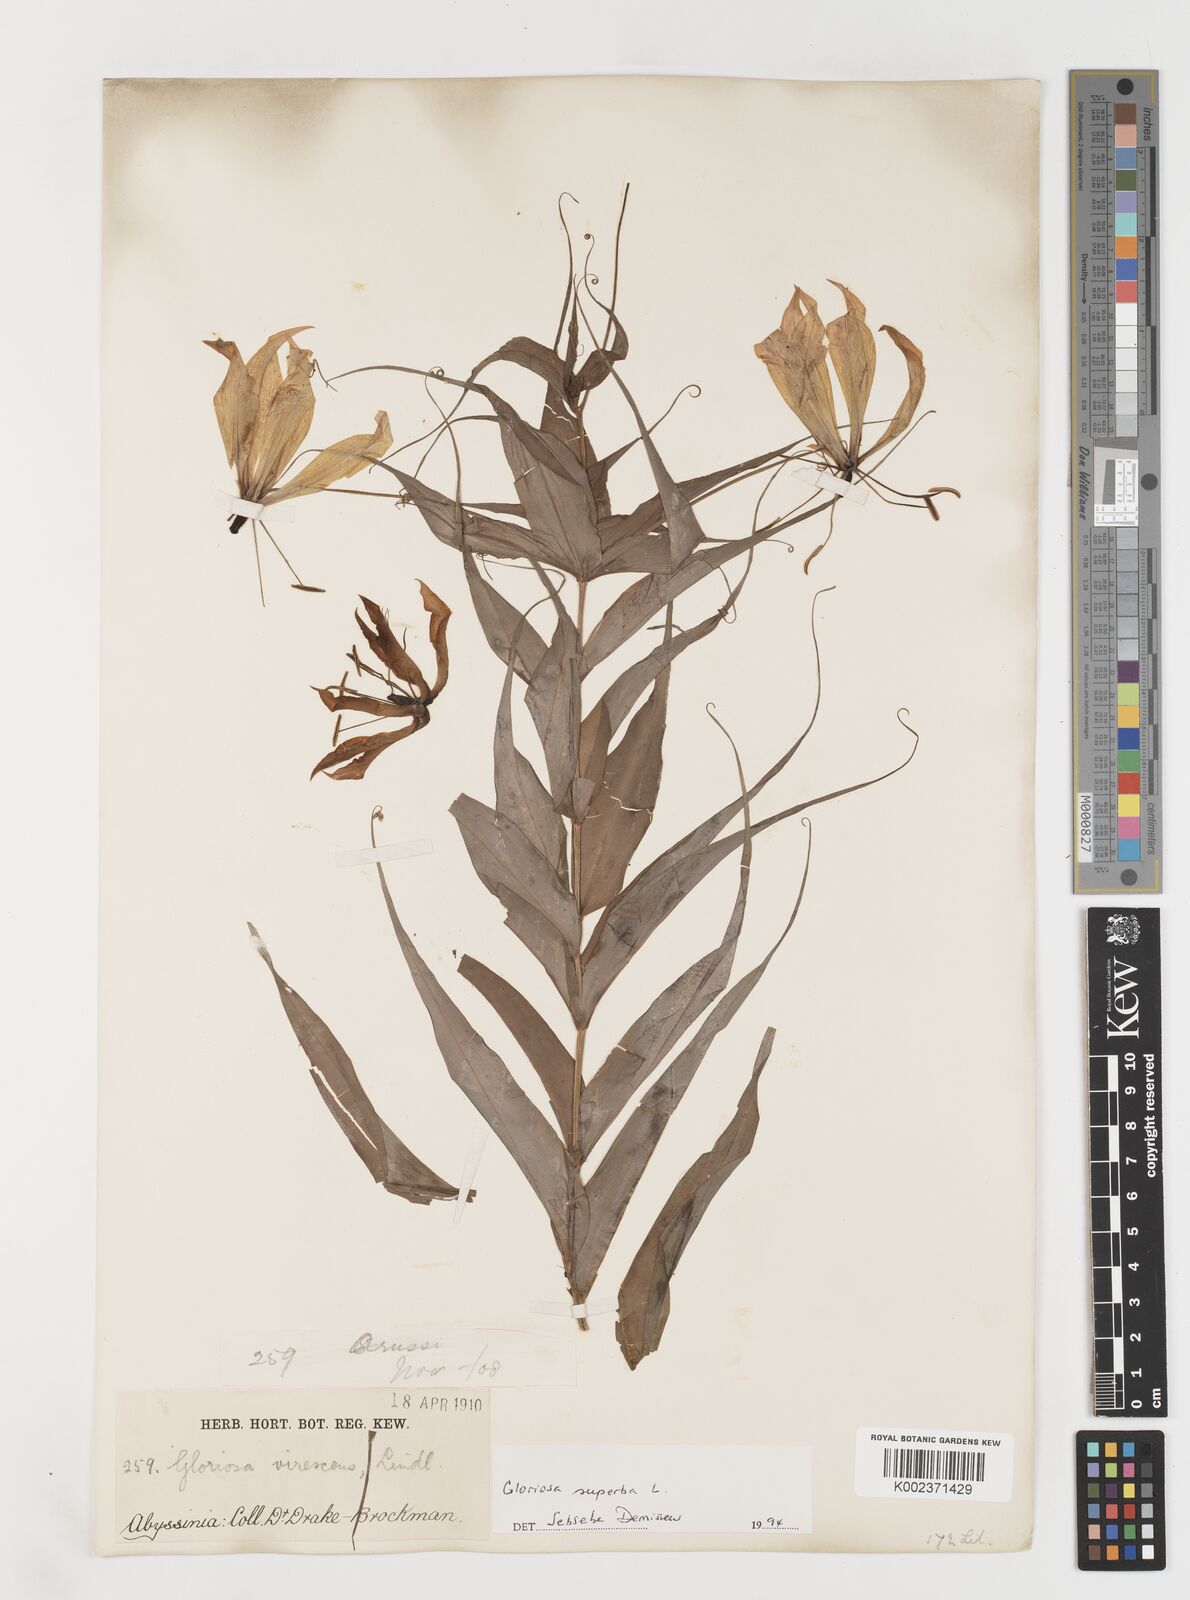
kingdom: Plantae
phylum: Tracheophyta
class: Liliopsida
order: Liliales
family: Colchicaceae
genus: Gloriosa
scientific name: Gloriosa simplex
